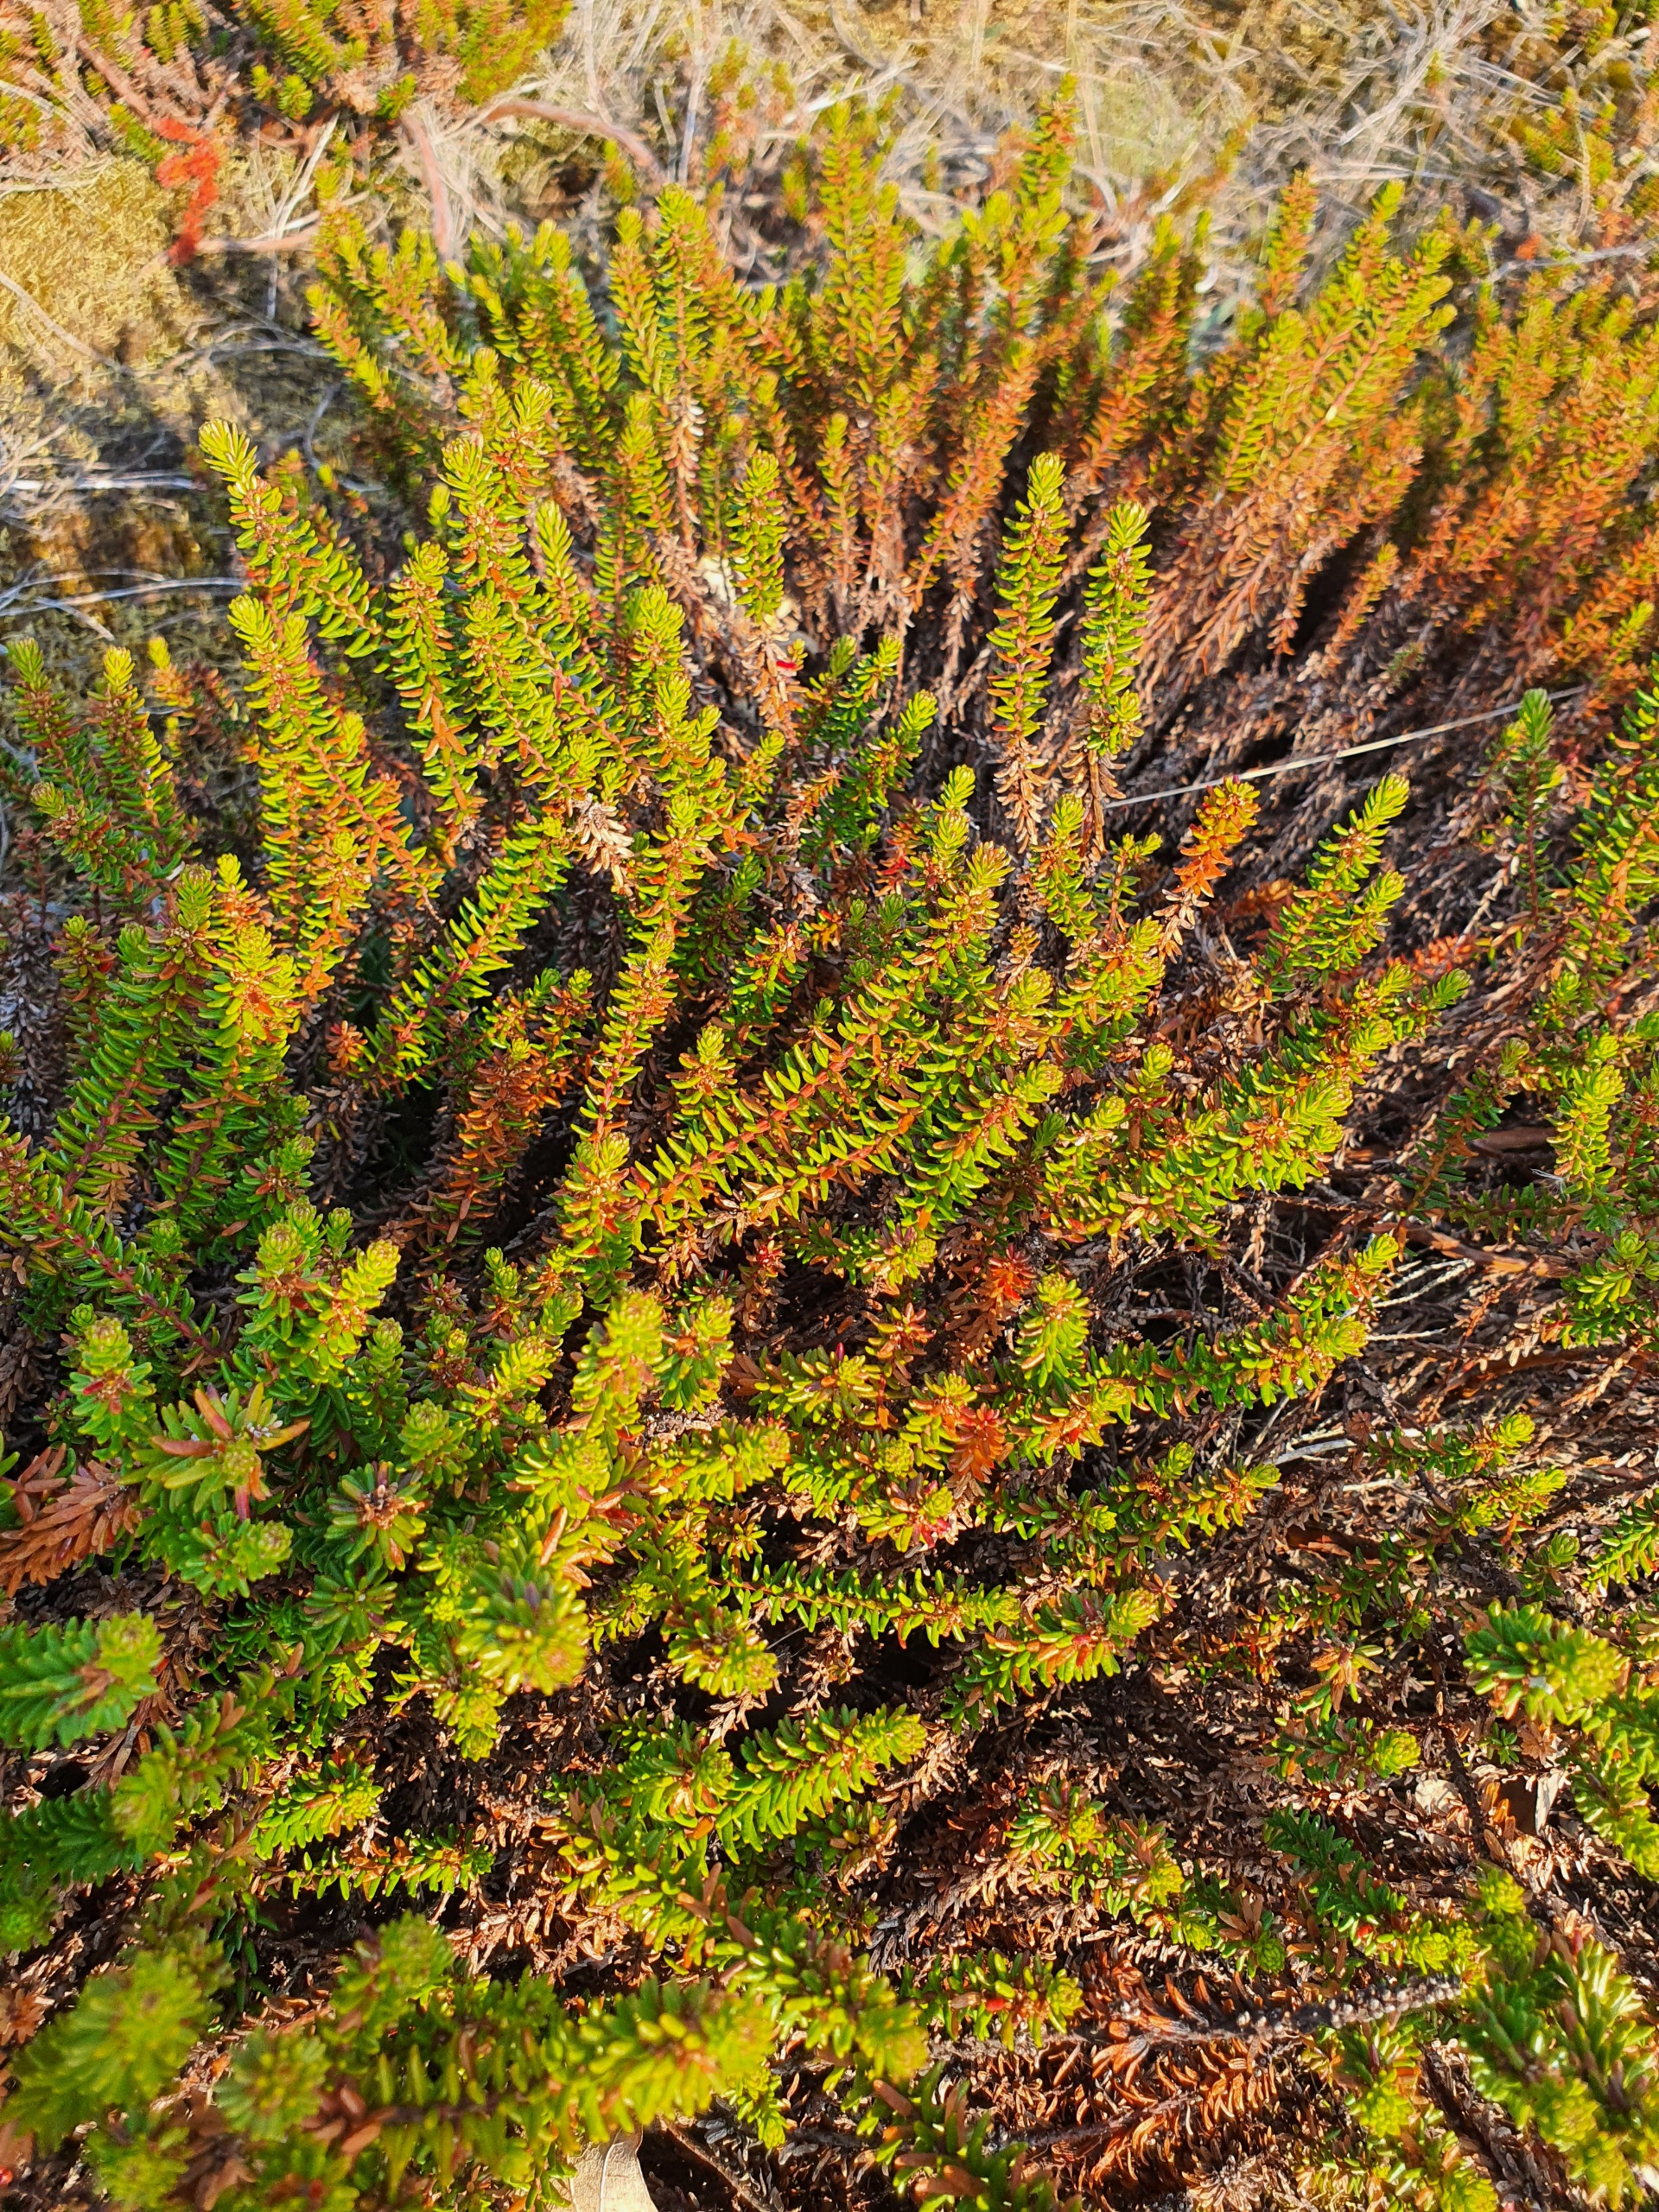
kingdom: Plantae
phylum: Tracheophyta
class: Magnoliopsida
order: Ericales
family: Ericaceae
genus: Empetrum
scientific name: Empetrum nigrum
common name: Revling
